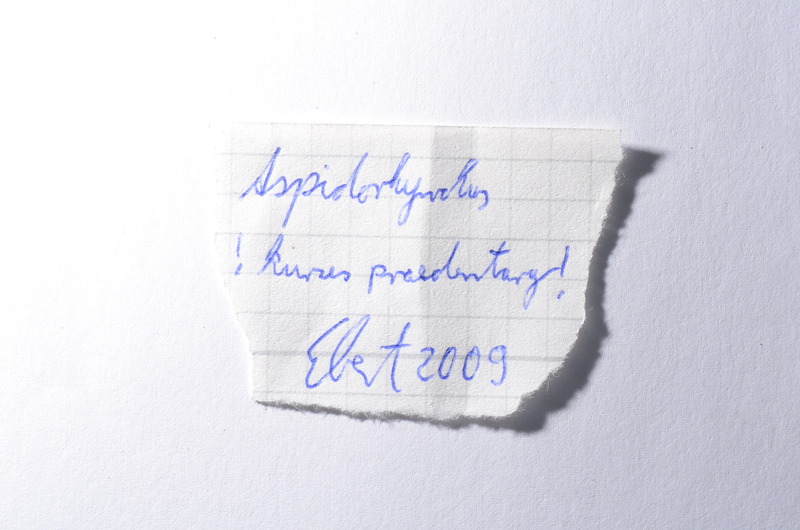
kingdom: Animalia
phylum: Chordata
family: Aspidorhynchidae
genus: Belonostomus
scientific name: Belonostomus
